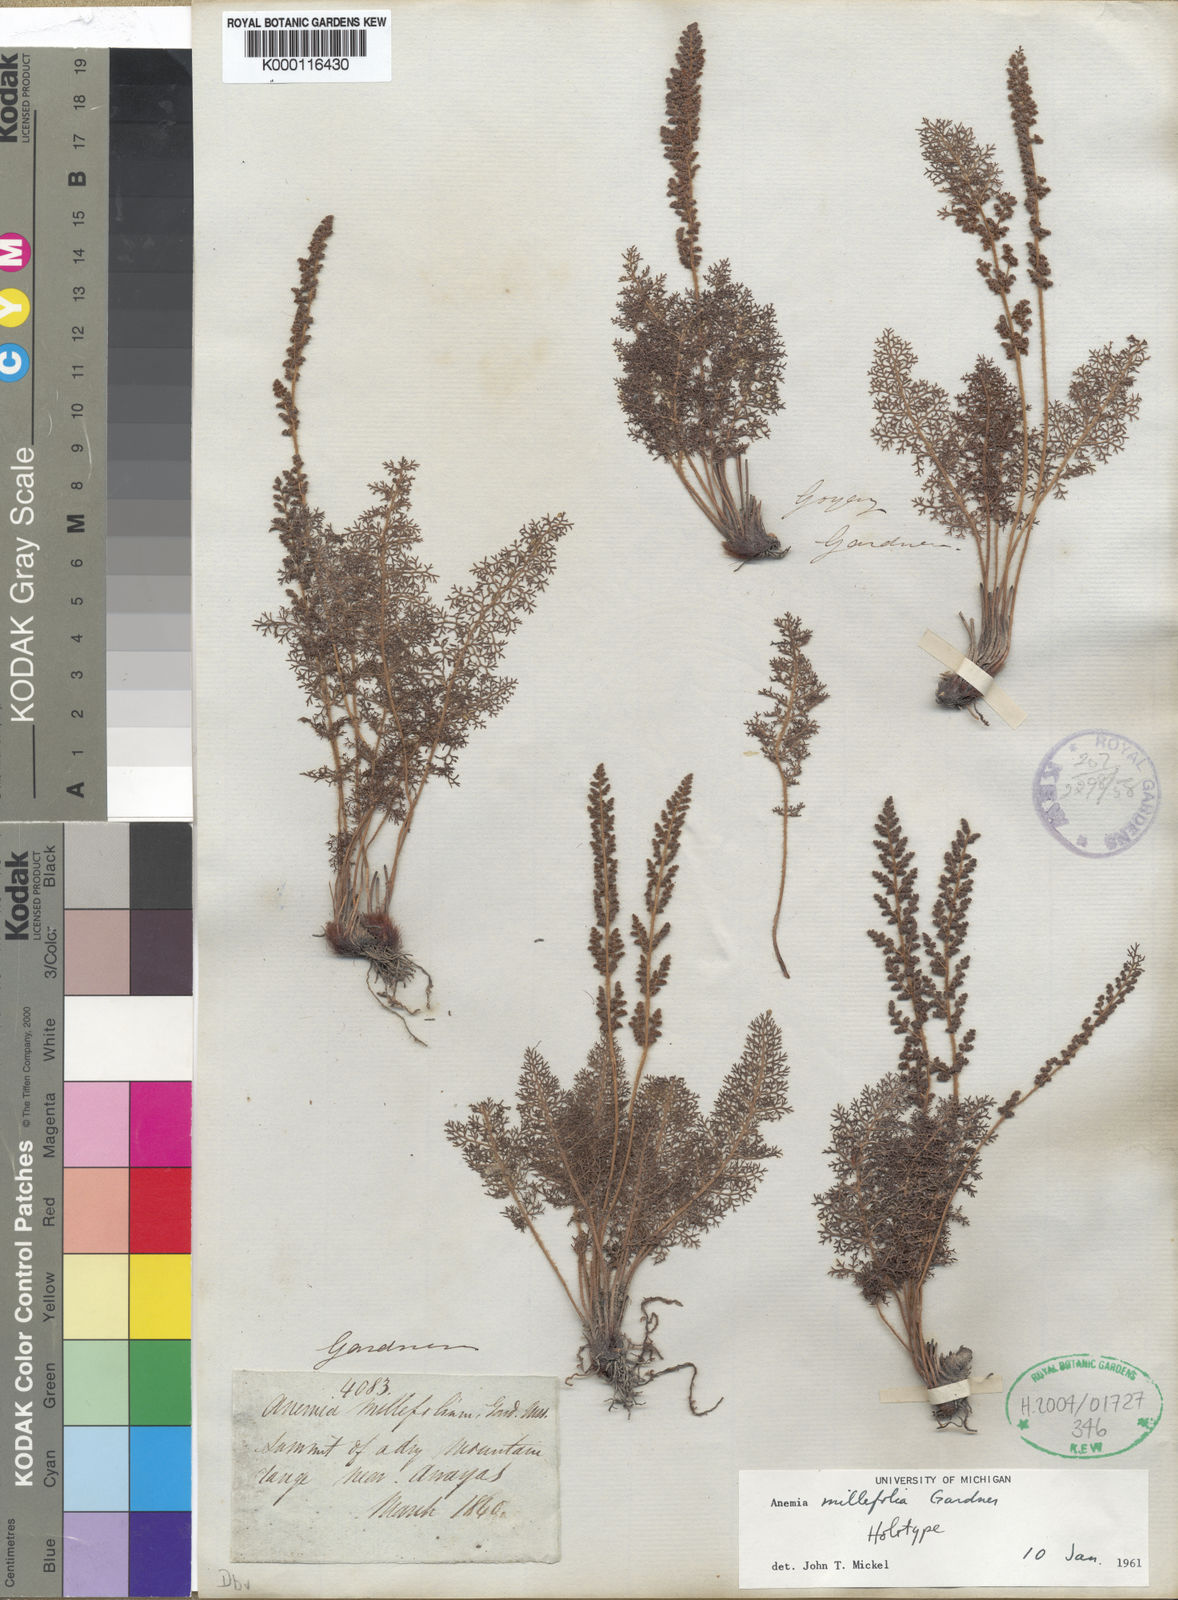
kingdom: Plantae
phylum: Tracheophyta
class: Polypodiopsida
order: Schizaeales
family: Anemiaceae
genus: Anemia
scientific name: Anemia millefolia
